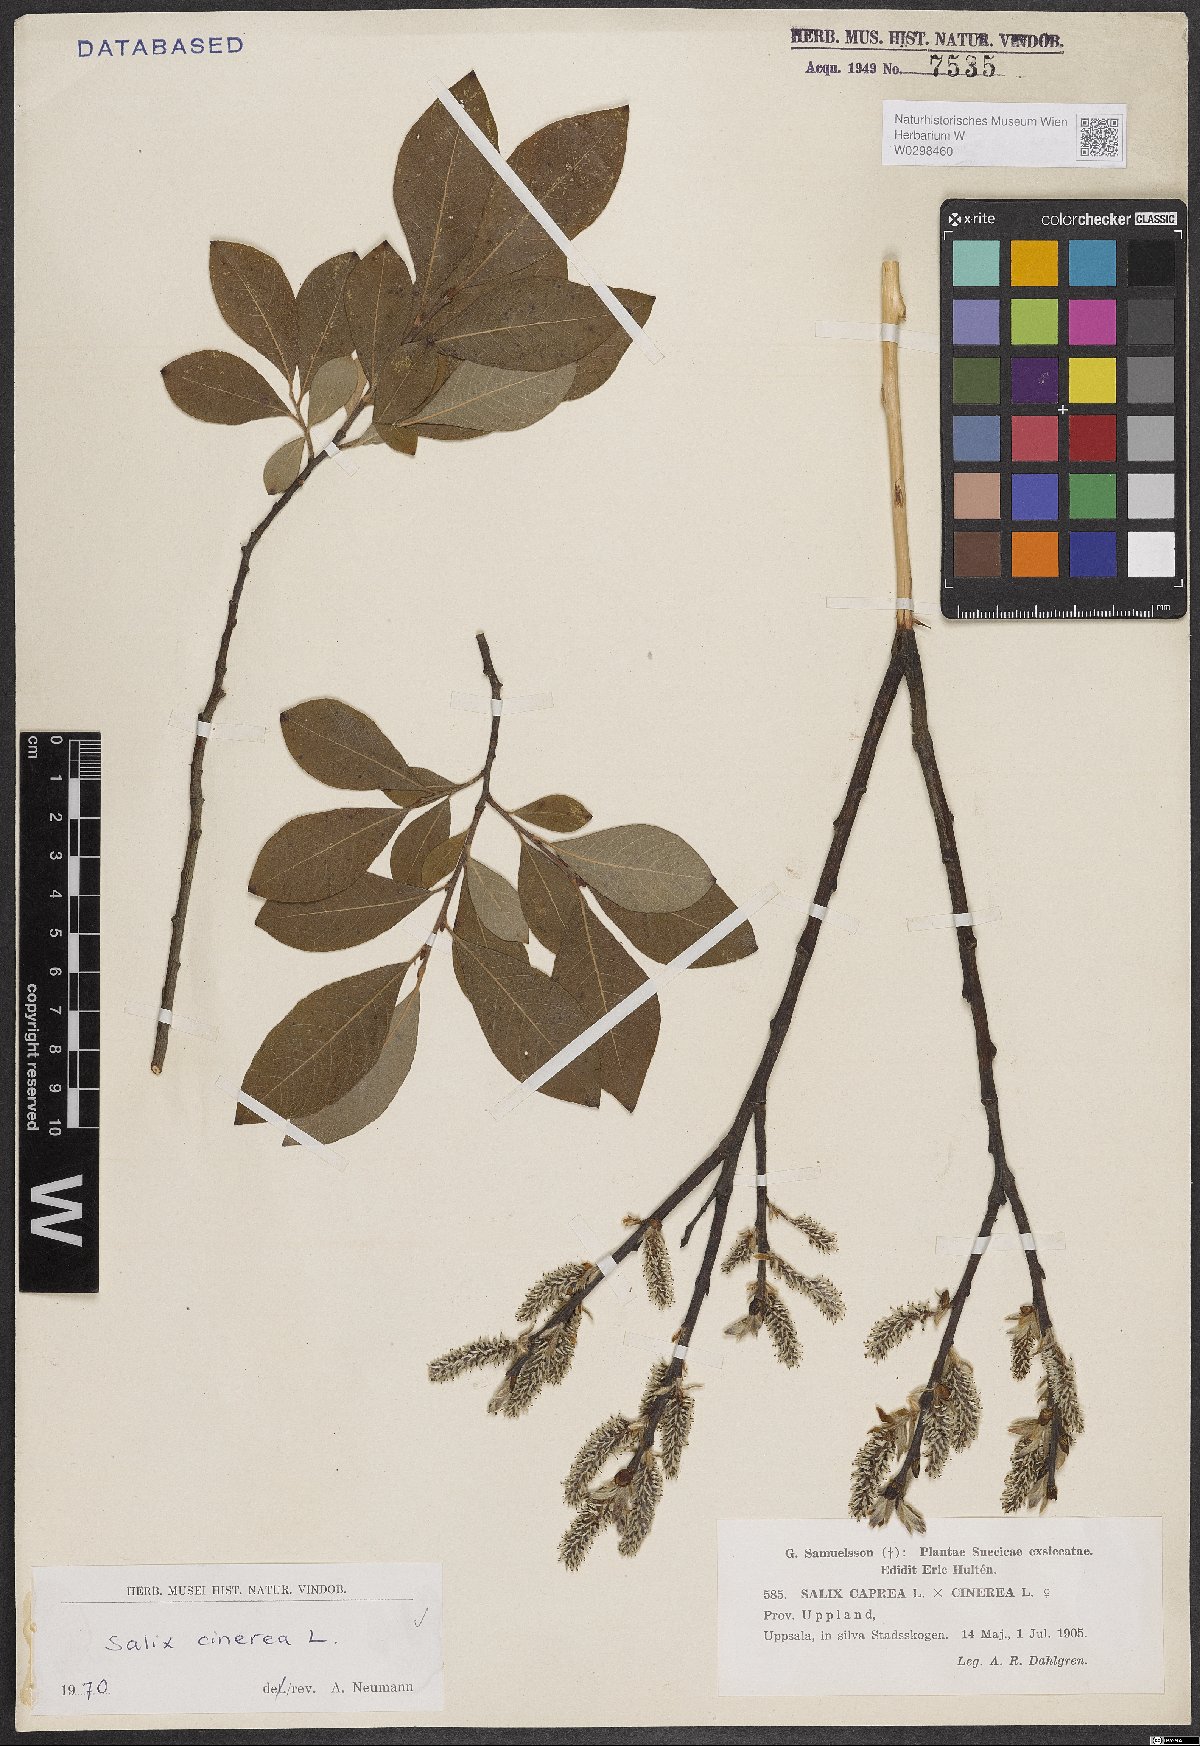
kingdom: Plantae
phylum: Tracheophyta
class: Magnoliopsida
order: Malpighiales
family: Salicaceae
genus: Salix
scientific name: Salix cinerea
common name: Common sallow
